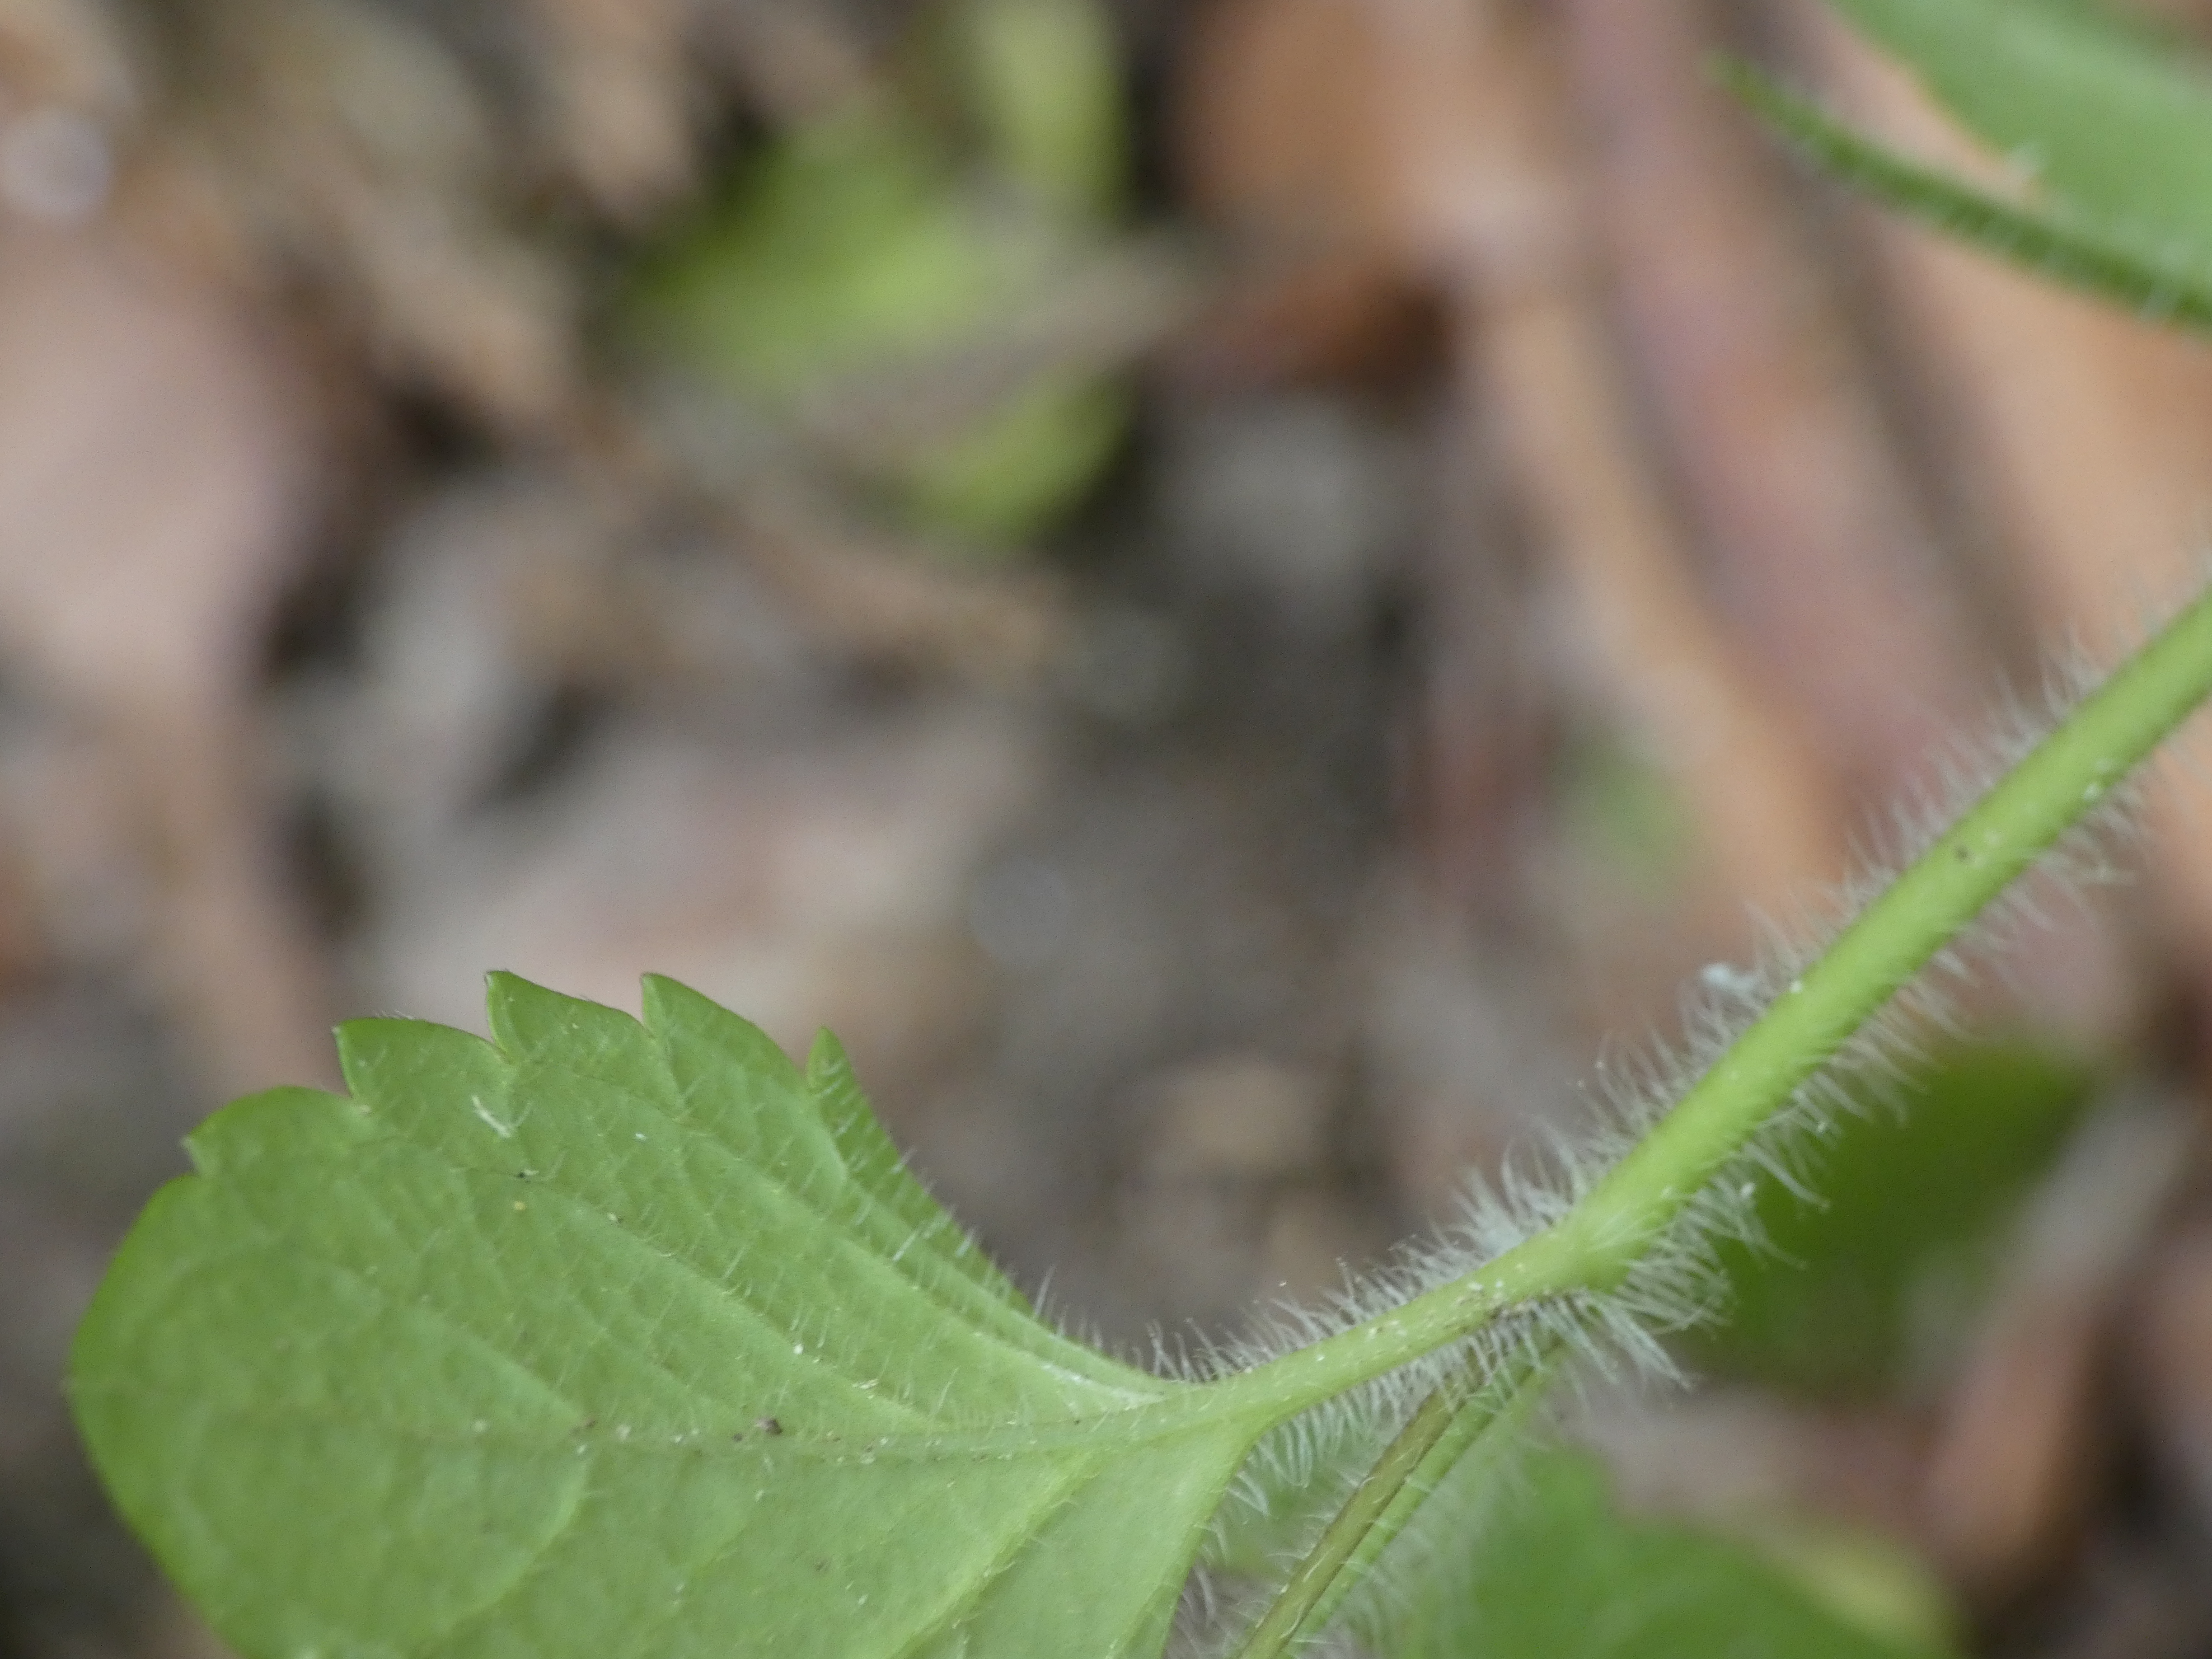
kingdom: Plantae
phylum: Tracheophyta
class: Magnoliopsida
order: Lamiales
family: Plantaginaceae
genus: Veronica
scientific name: Veronica montana
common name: Bjerg-ærenpris
